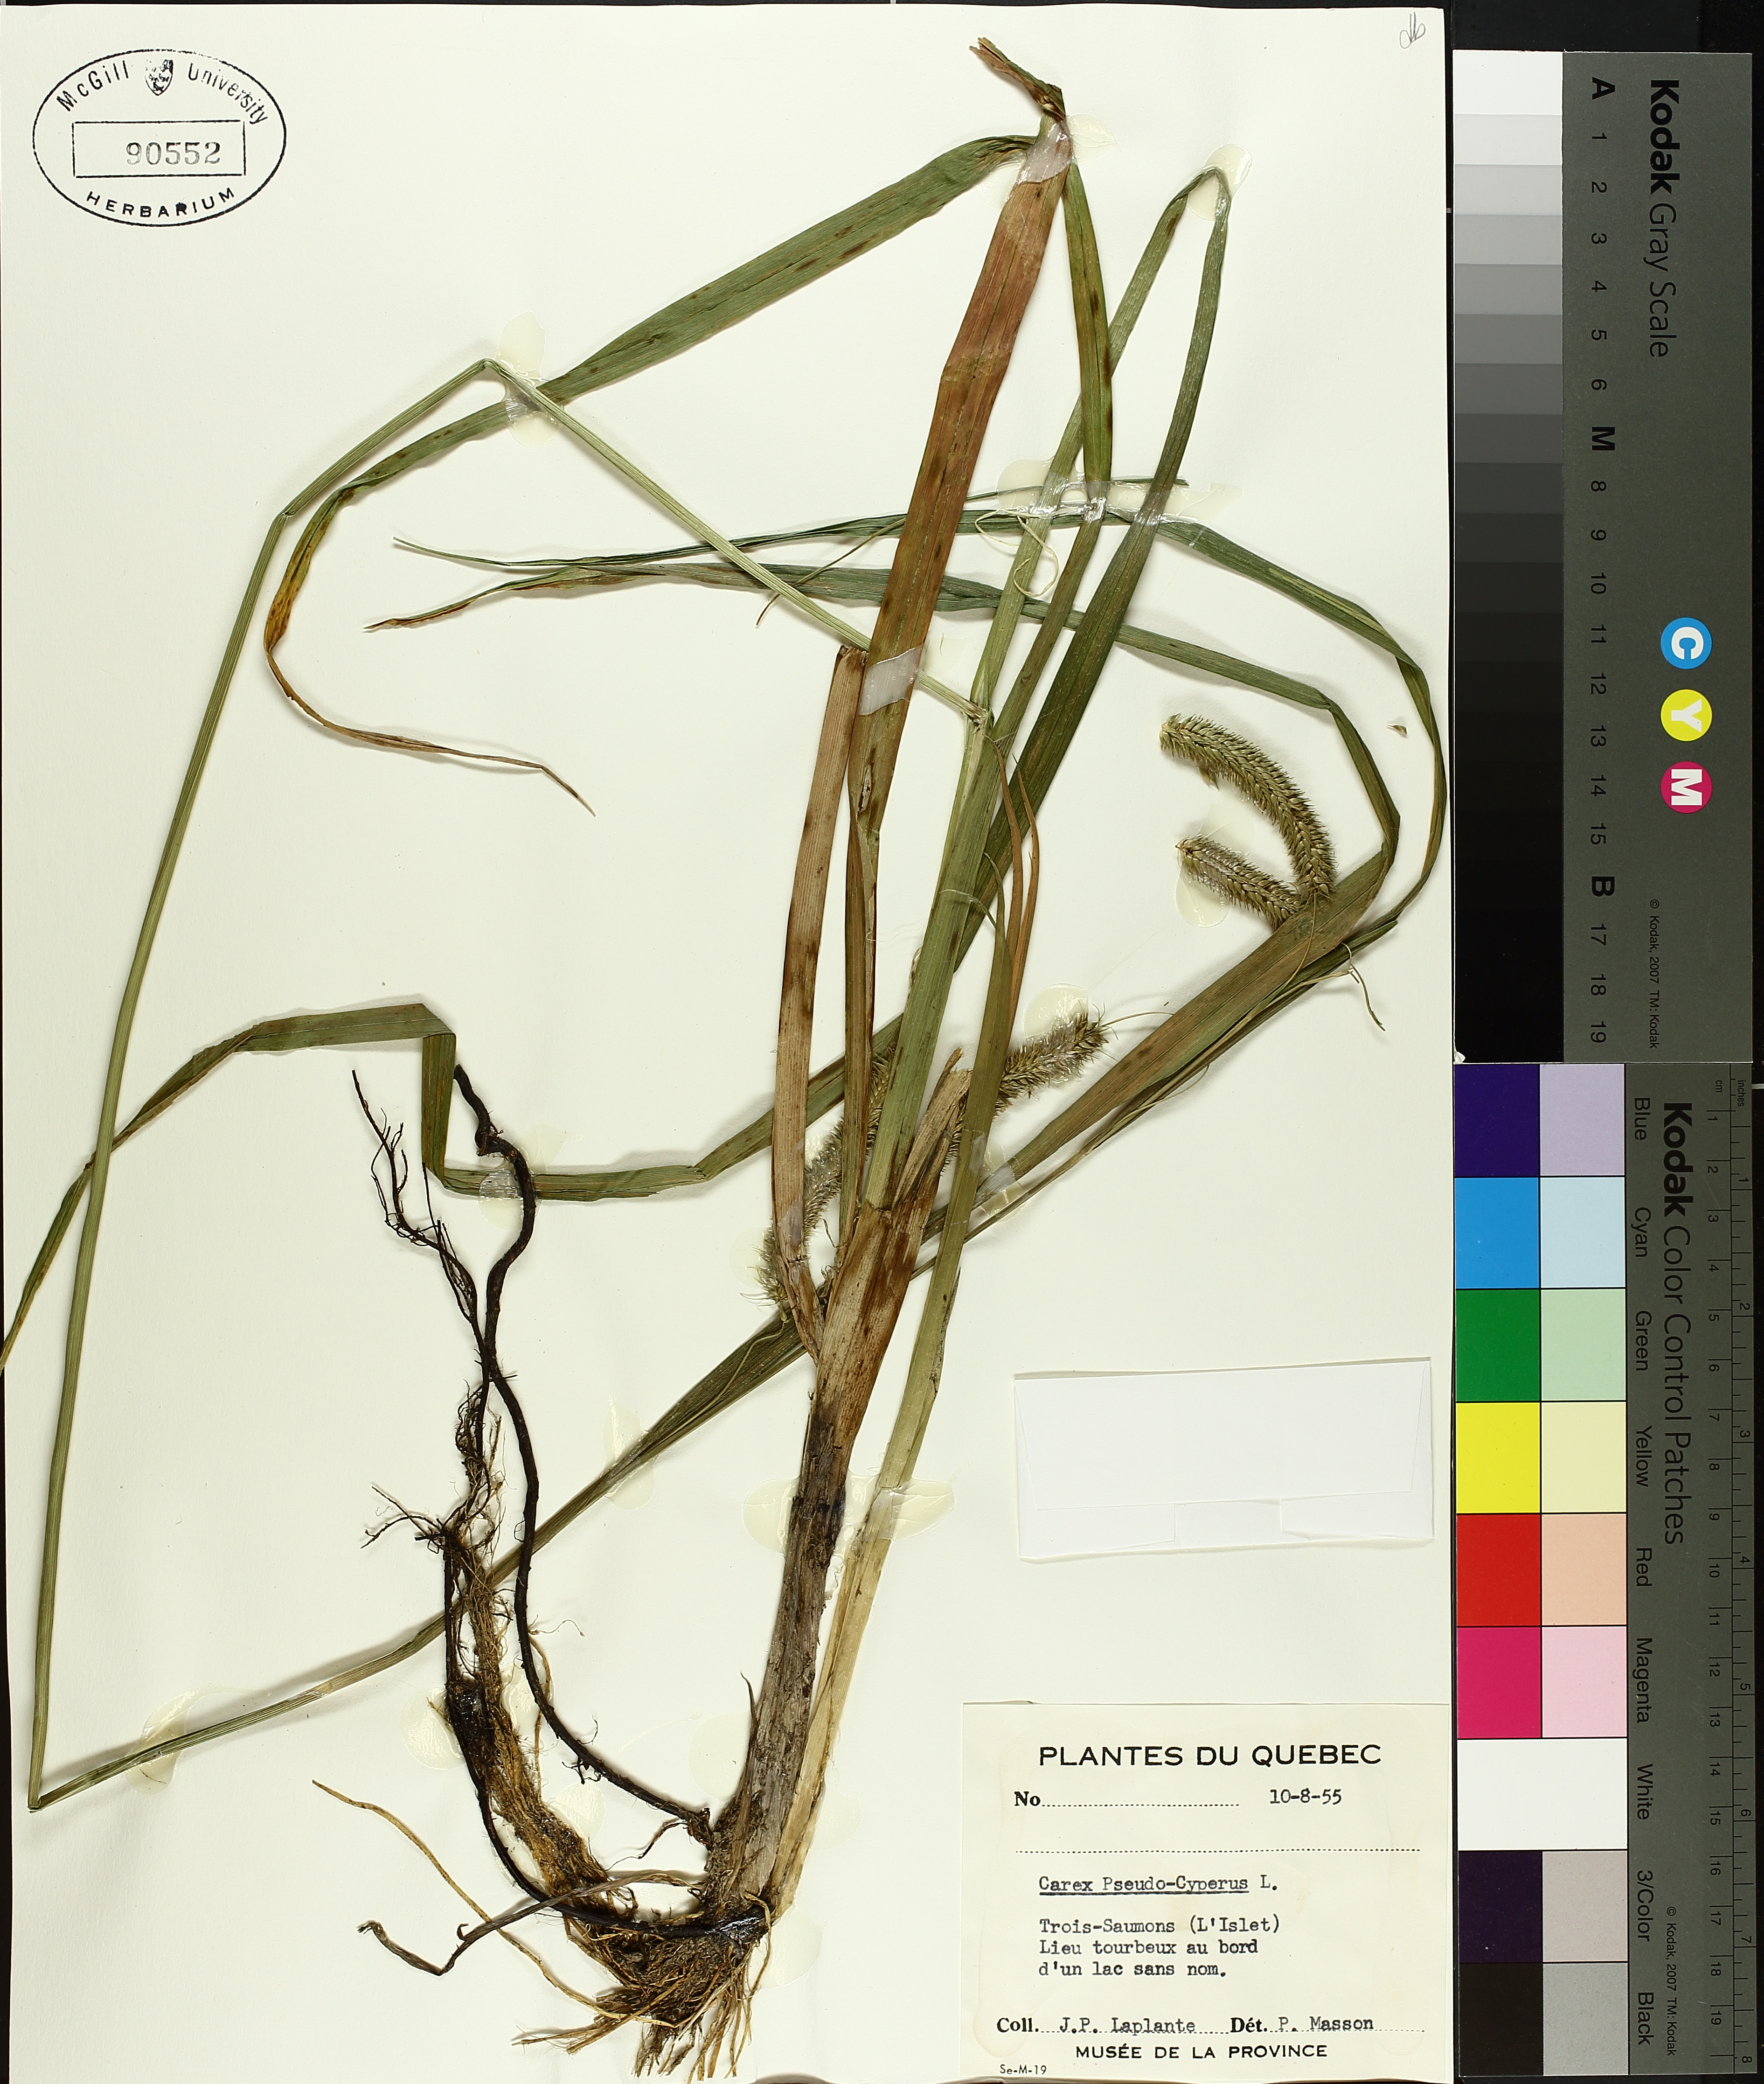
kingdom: Plantae
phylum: Tracheophyta
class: Liliopsida
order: Poales
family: Cyperaceae
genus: Carex
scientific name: Carex pseudocyperus
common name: Cyperus sedge
